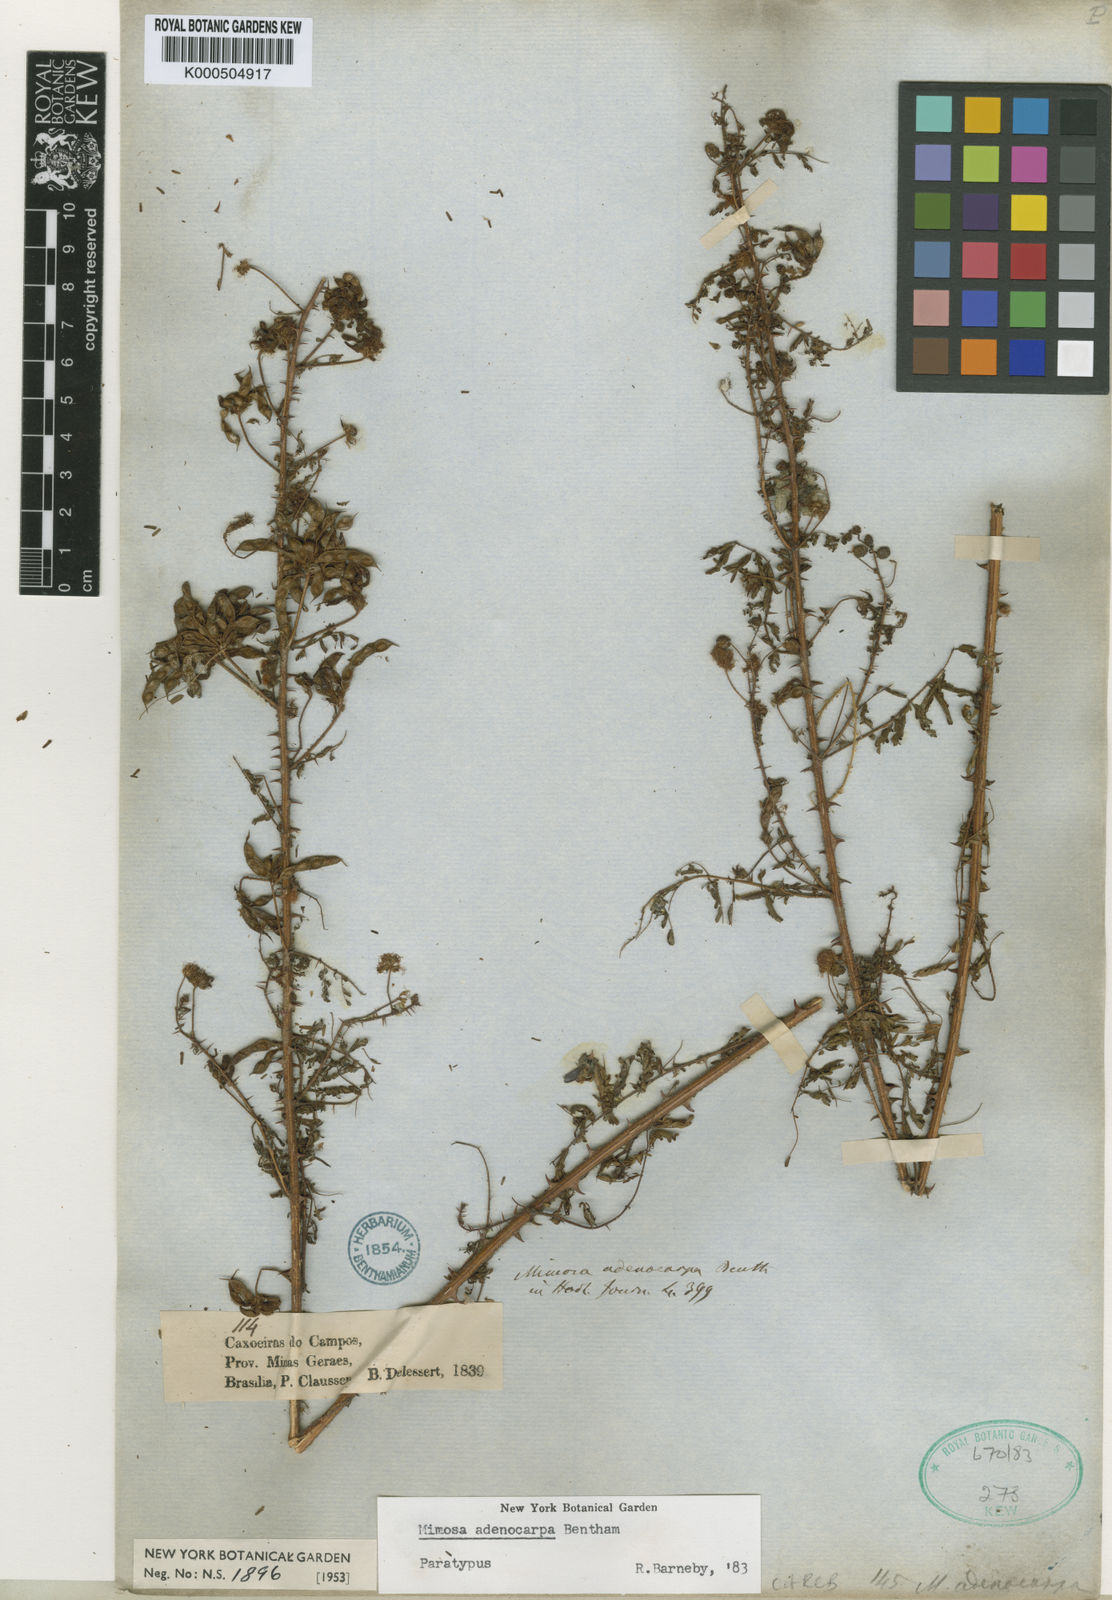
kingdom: Plantae
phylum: Tracheophyta
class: Magnoliopsida
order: Fabales
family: Fabaceae
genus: Mimosa
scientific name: Mimosa adenocarpa
